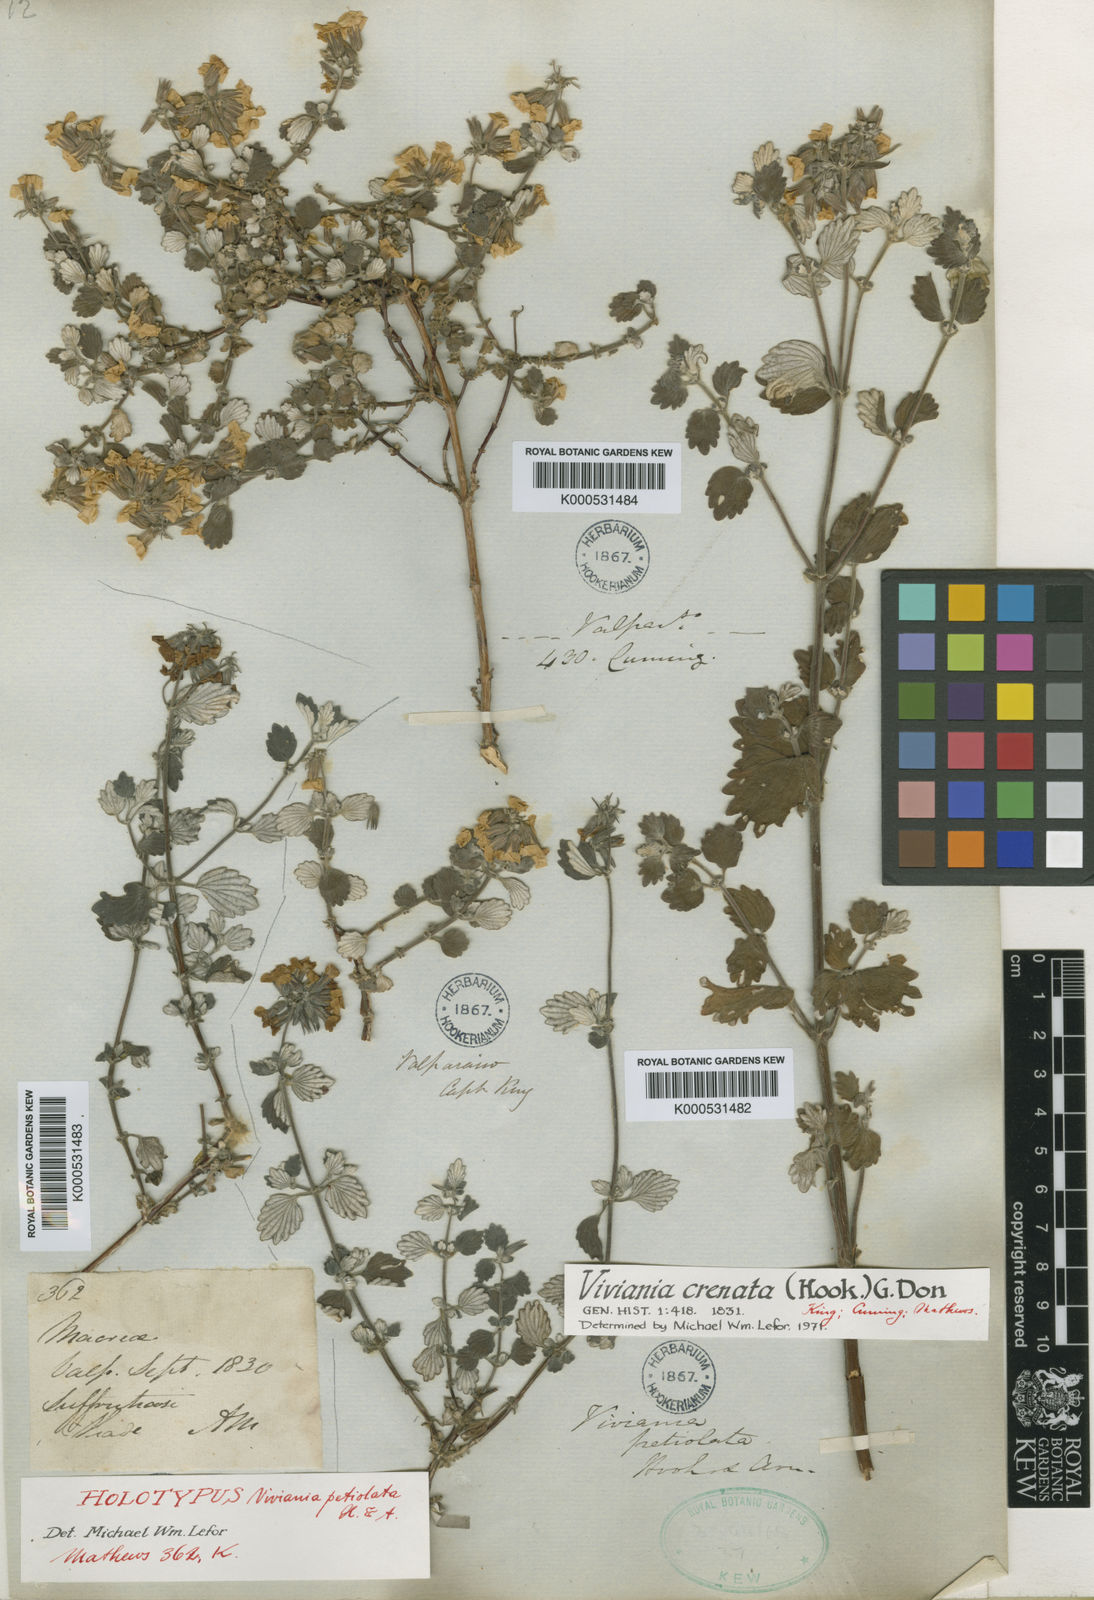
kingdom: Plantae
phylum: Tracheophyta
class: Magnoliopsida
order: Geraniales
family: Vivianiaceae
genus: Viviania
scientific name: Viviania crenata
